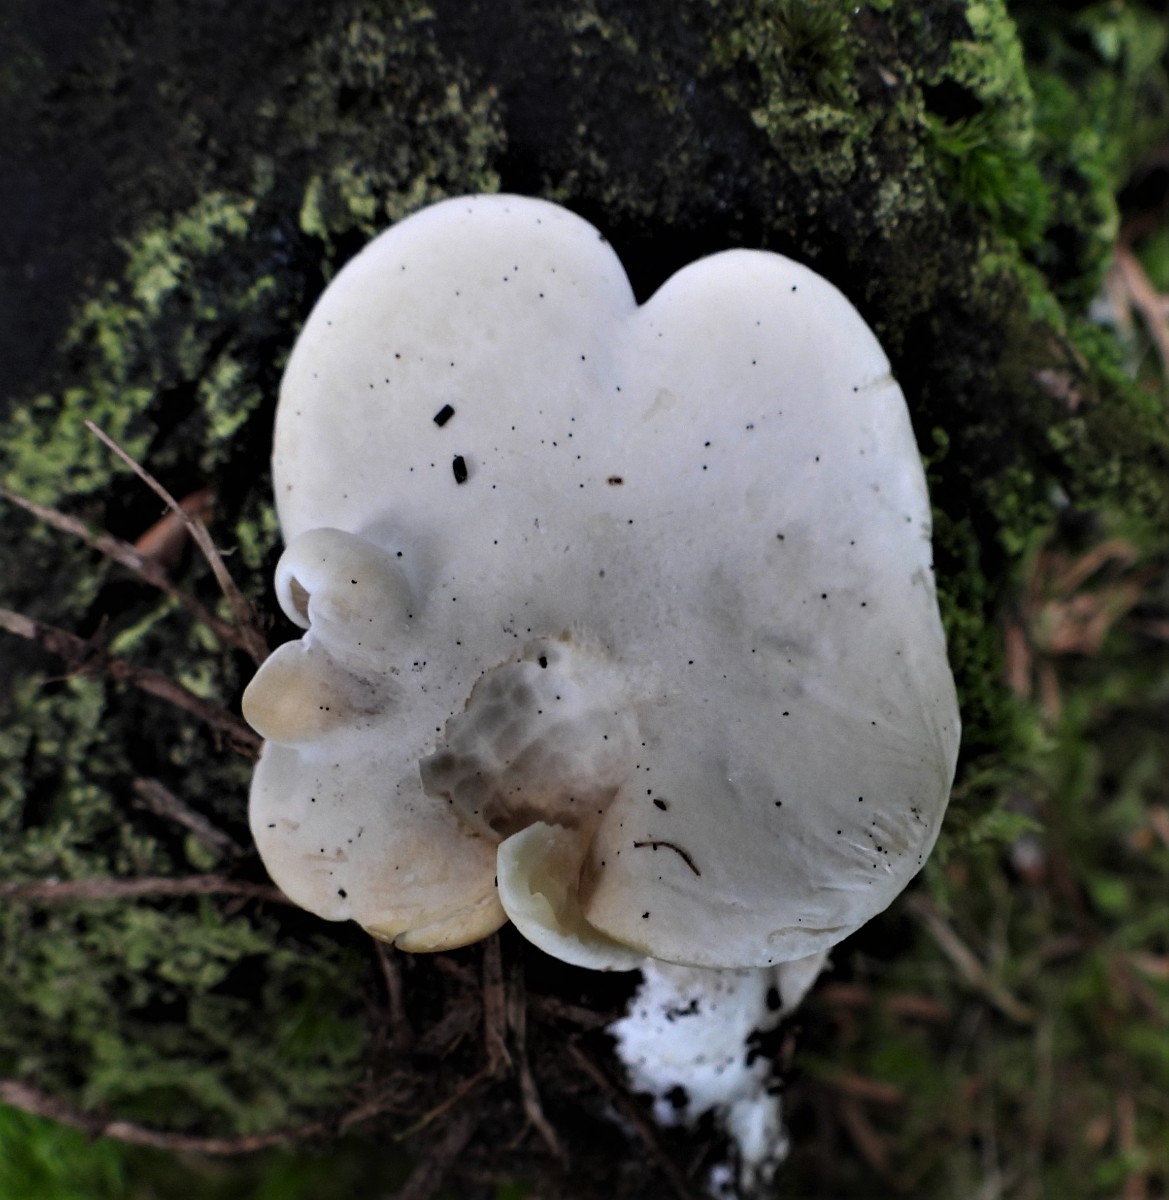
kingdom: Fungi
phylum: Basidiomycota
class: Agaricomycetes
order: Agaricales
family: Entolomataceae
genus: Clitopilus
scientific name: Clitopilus prunulus
